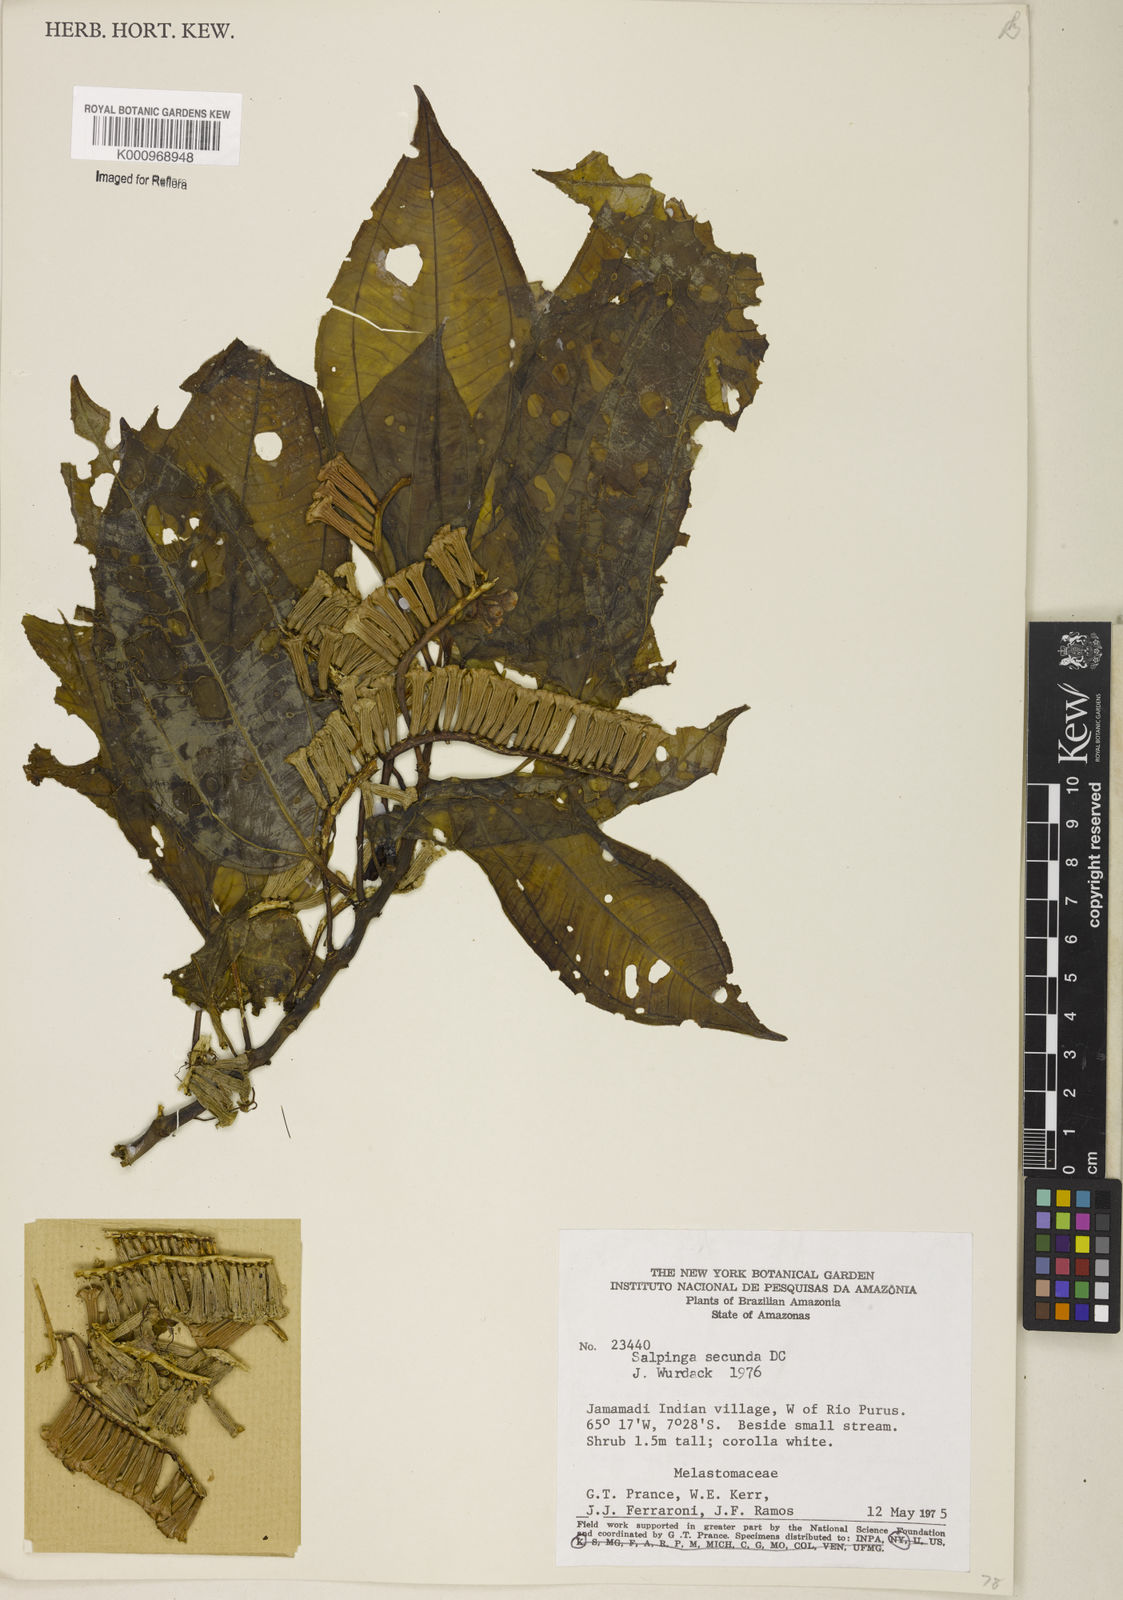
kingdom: Plantae
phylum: Tracheophyta
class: Magnoliopsida
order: Myrtales
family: Melastomataceae
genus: Salpinga
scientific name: Salpinga secunda
